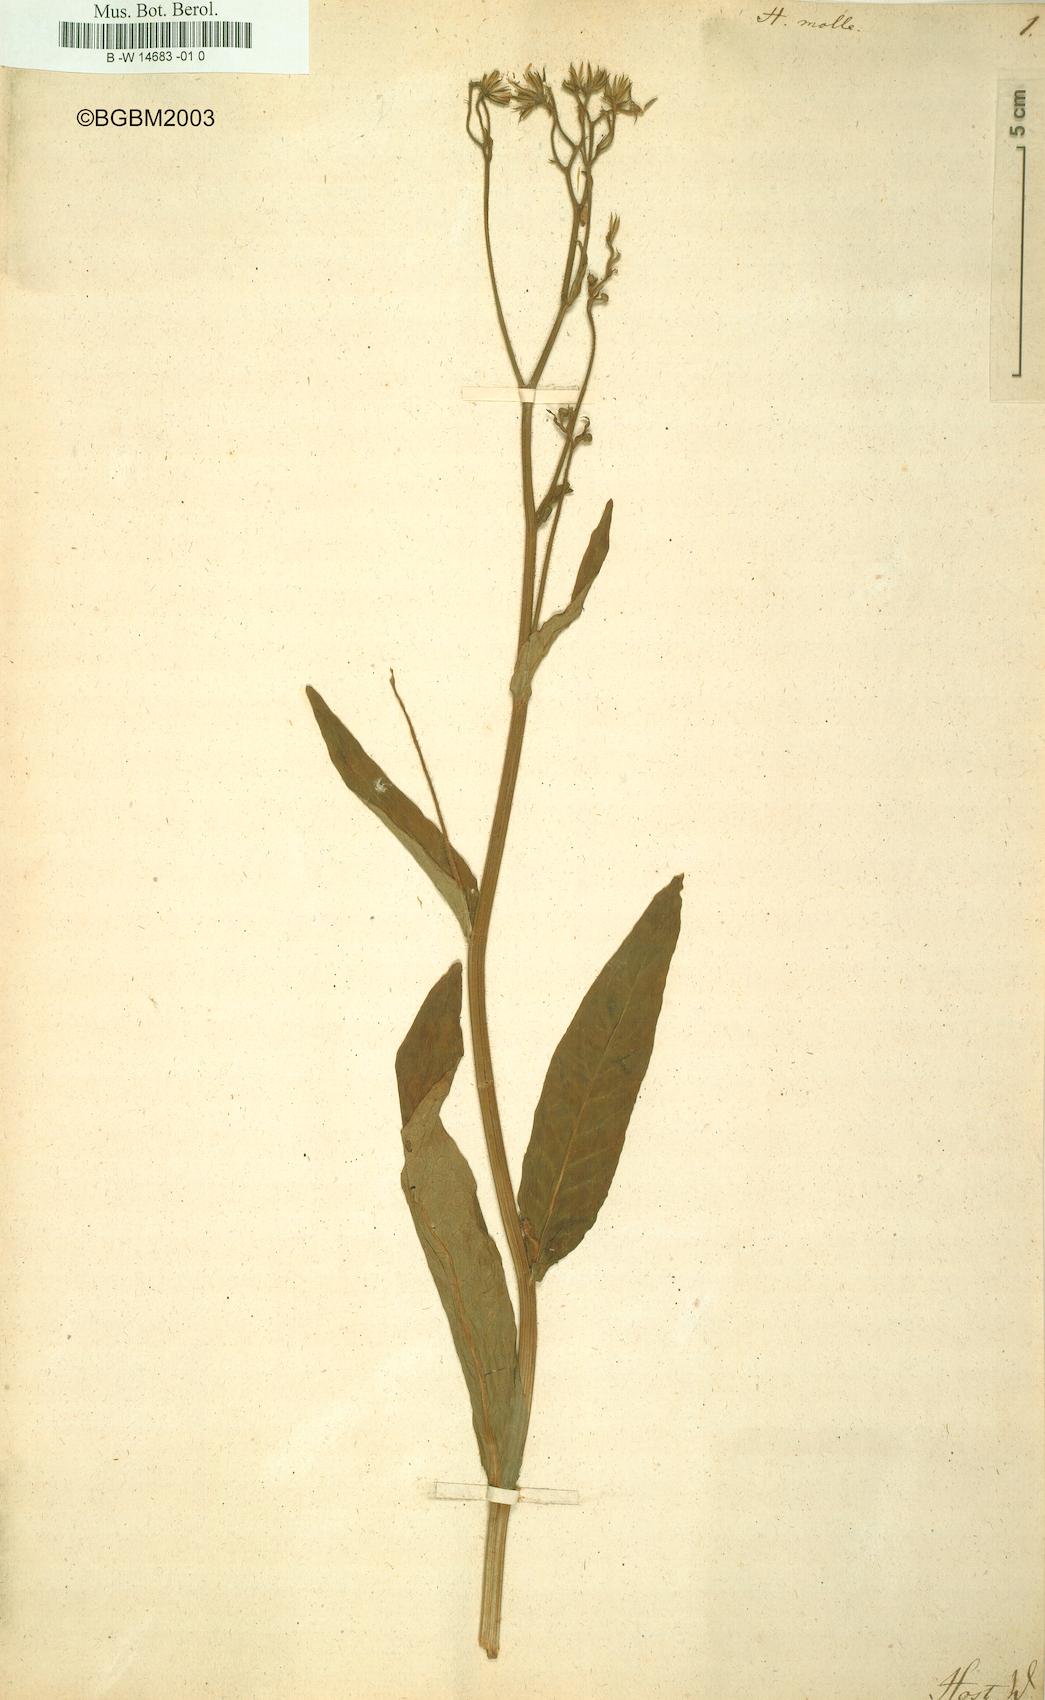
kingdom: Plantae
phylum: Tracheophyta
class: Magnoliopsida
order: Asterales
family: Asteraceae
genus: Hieracium
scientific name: Hieracium molle
